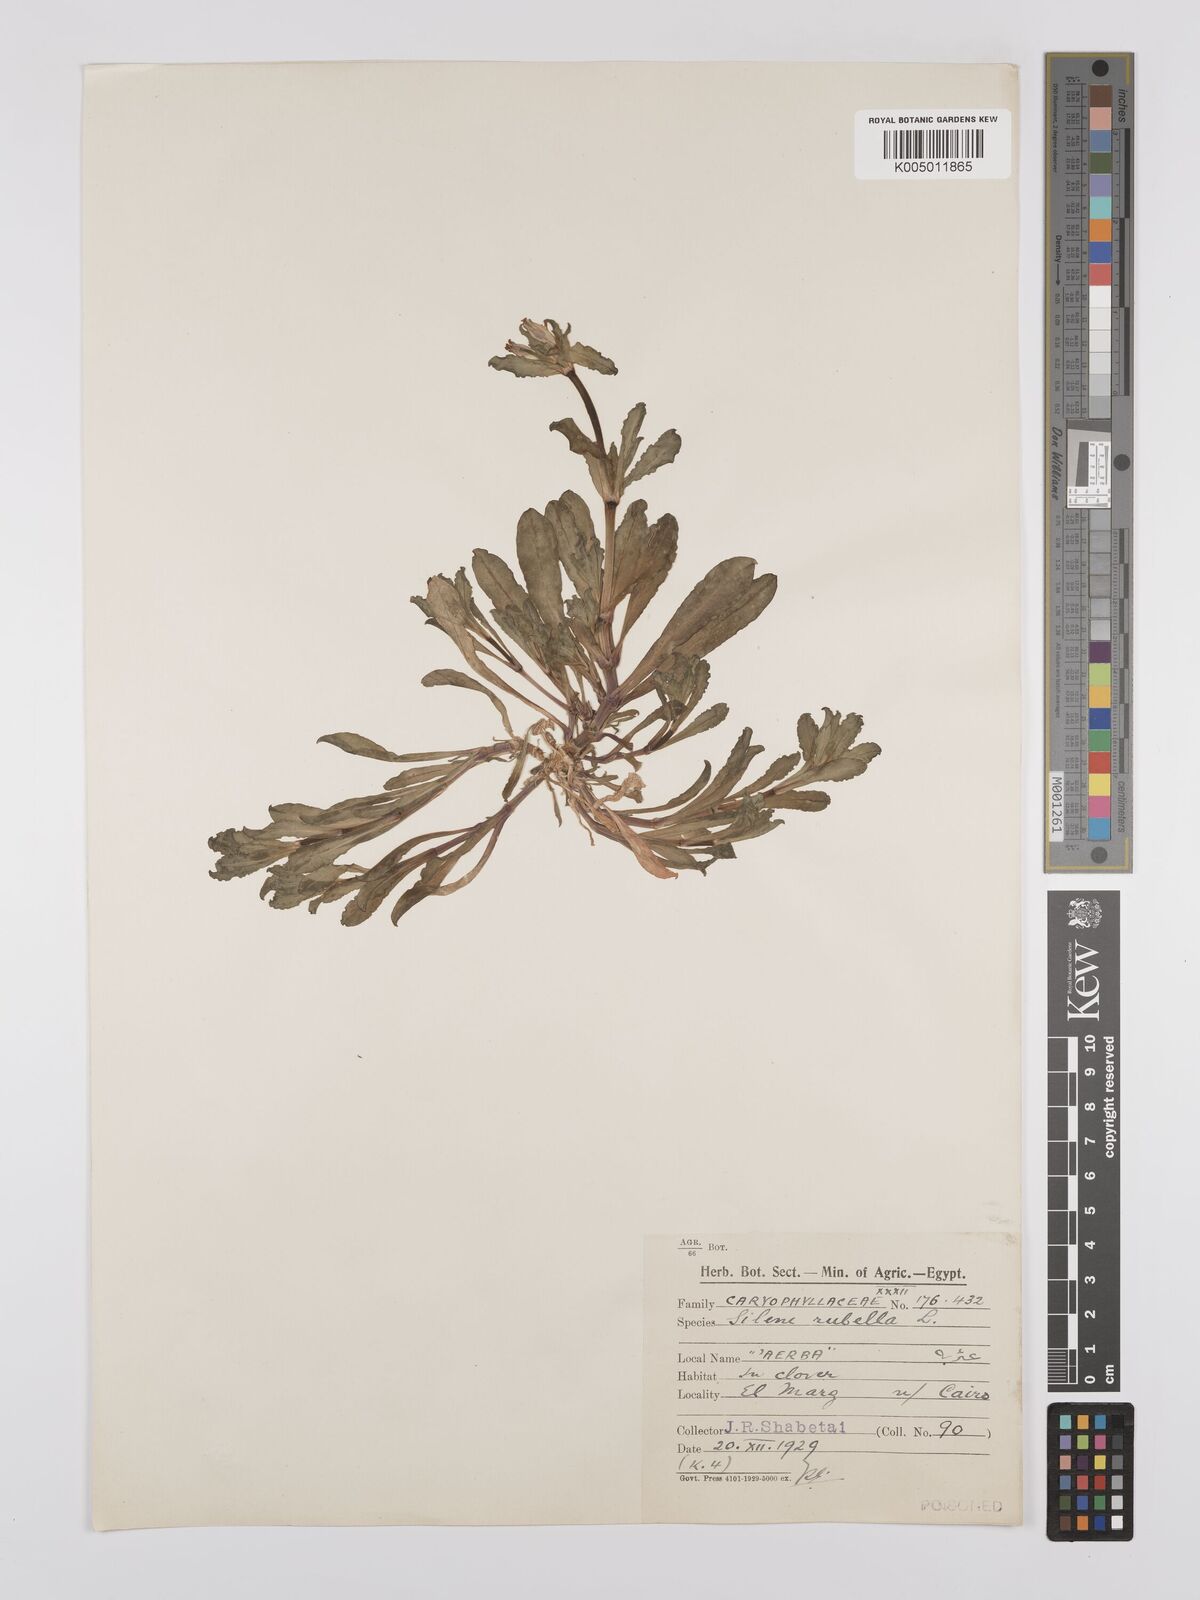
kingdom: Plantae
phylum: Tracheophyta
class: Magnoliopsida
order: Caryophyllales
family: Caryophyllaceae
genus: Silene
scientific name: Silene rubella
